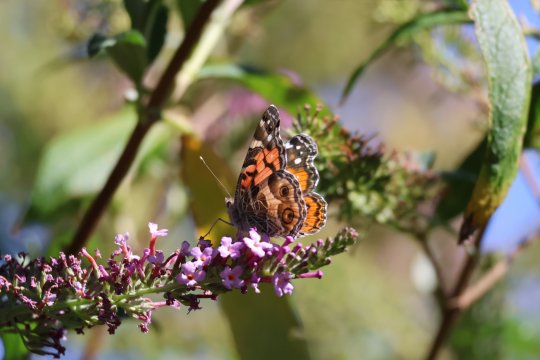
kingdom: Animalia
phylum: Arthropoda
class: Insecta
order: Lepidoptera
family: Nymphalidae
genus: Vanessa
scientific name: Vanessa virginiensis
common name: American Lady
